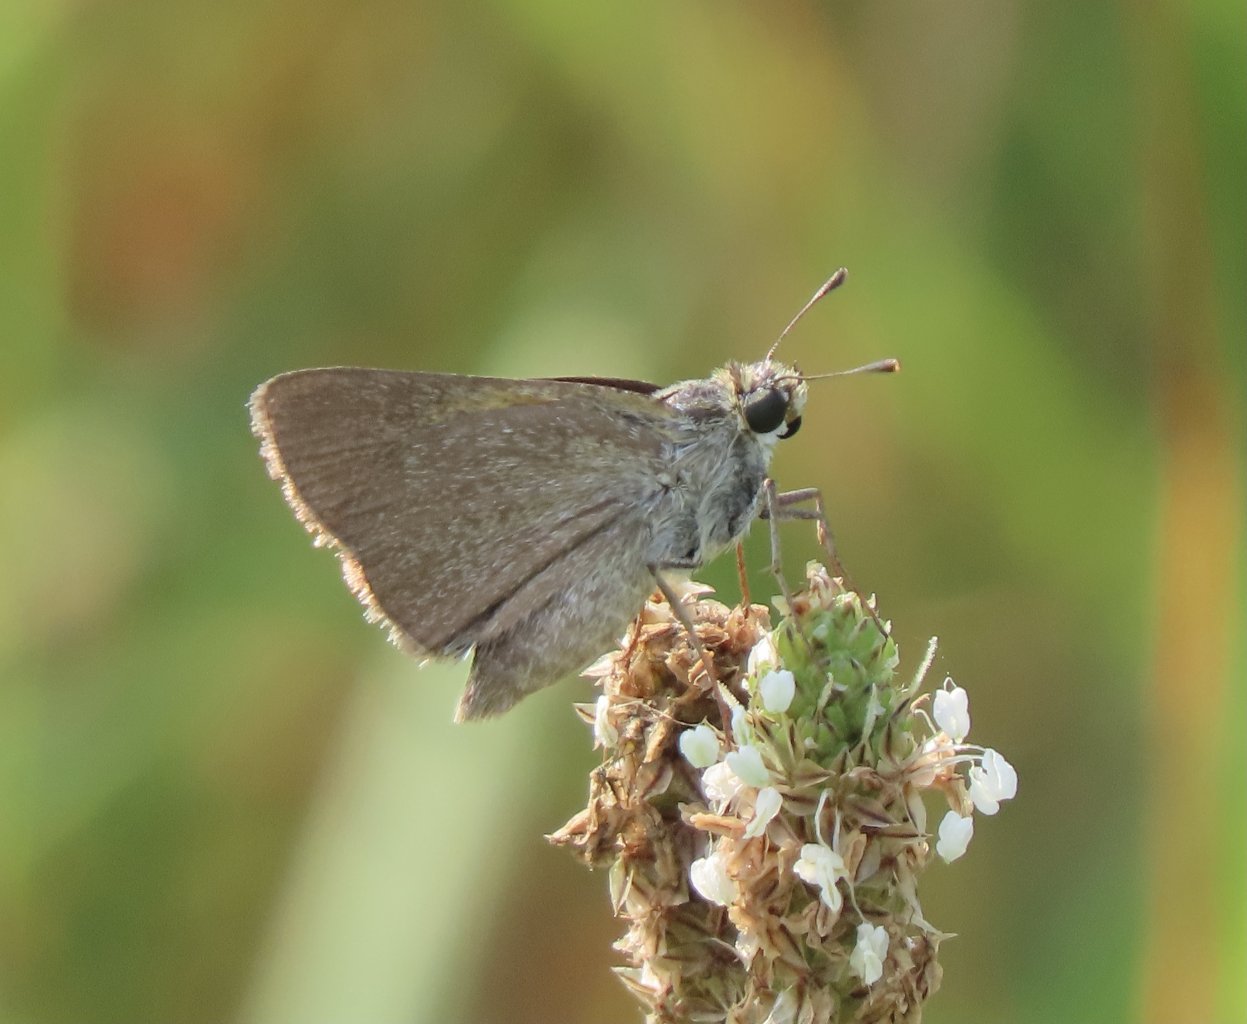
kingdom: Animalia
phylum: Arthropoda
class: Insecta
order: Lepidoptera
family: Hesperiidae
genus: Nastra
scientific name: Nastra lherminier
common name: Swarthy Skipper
